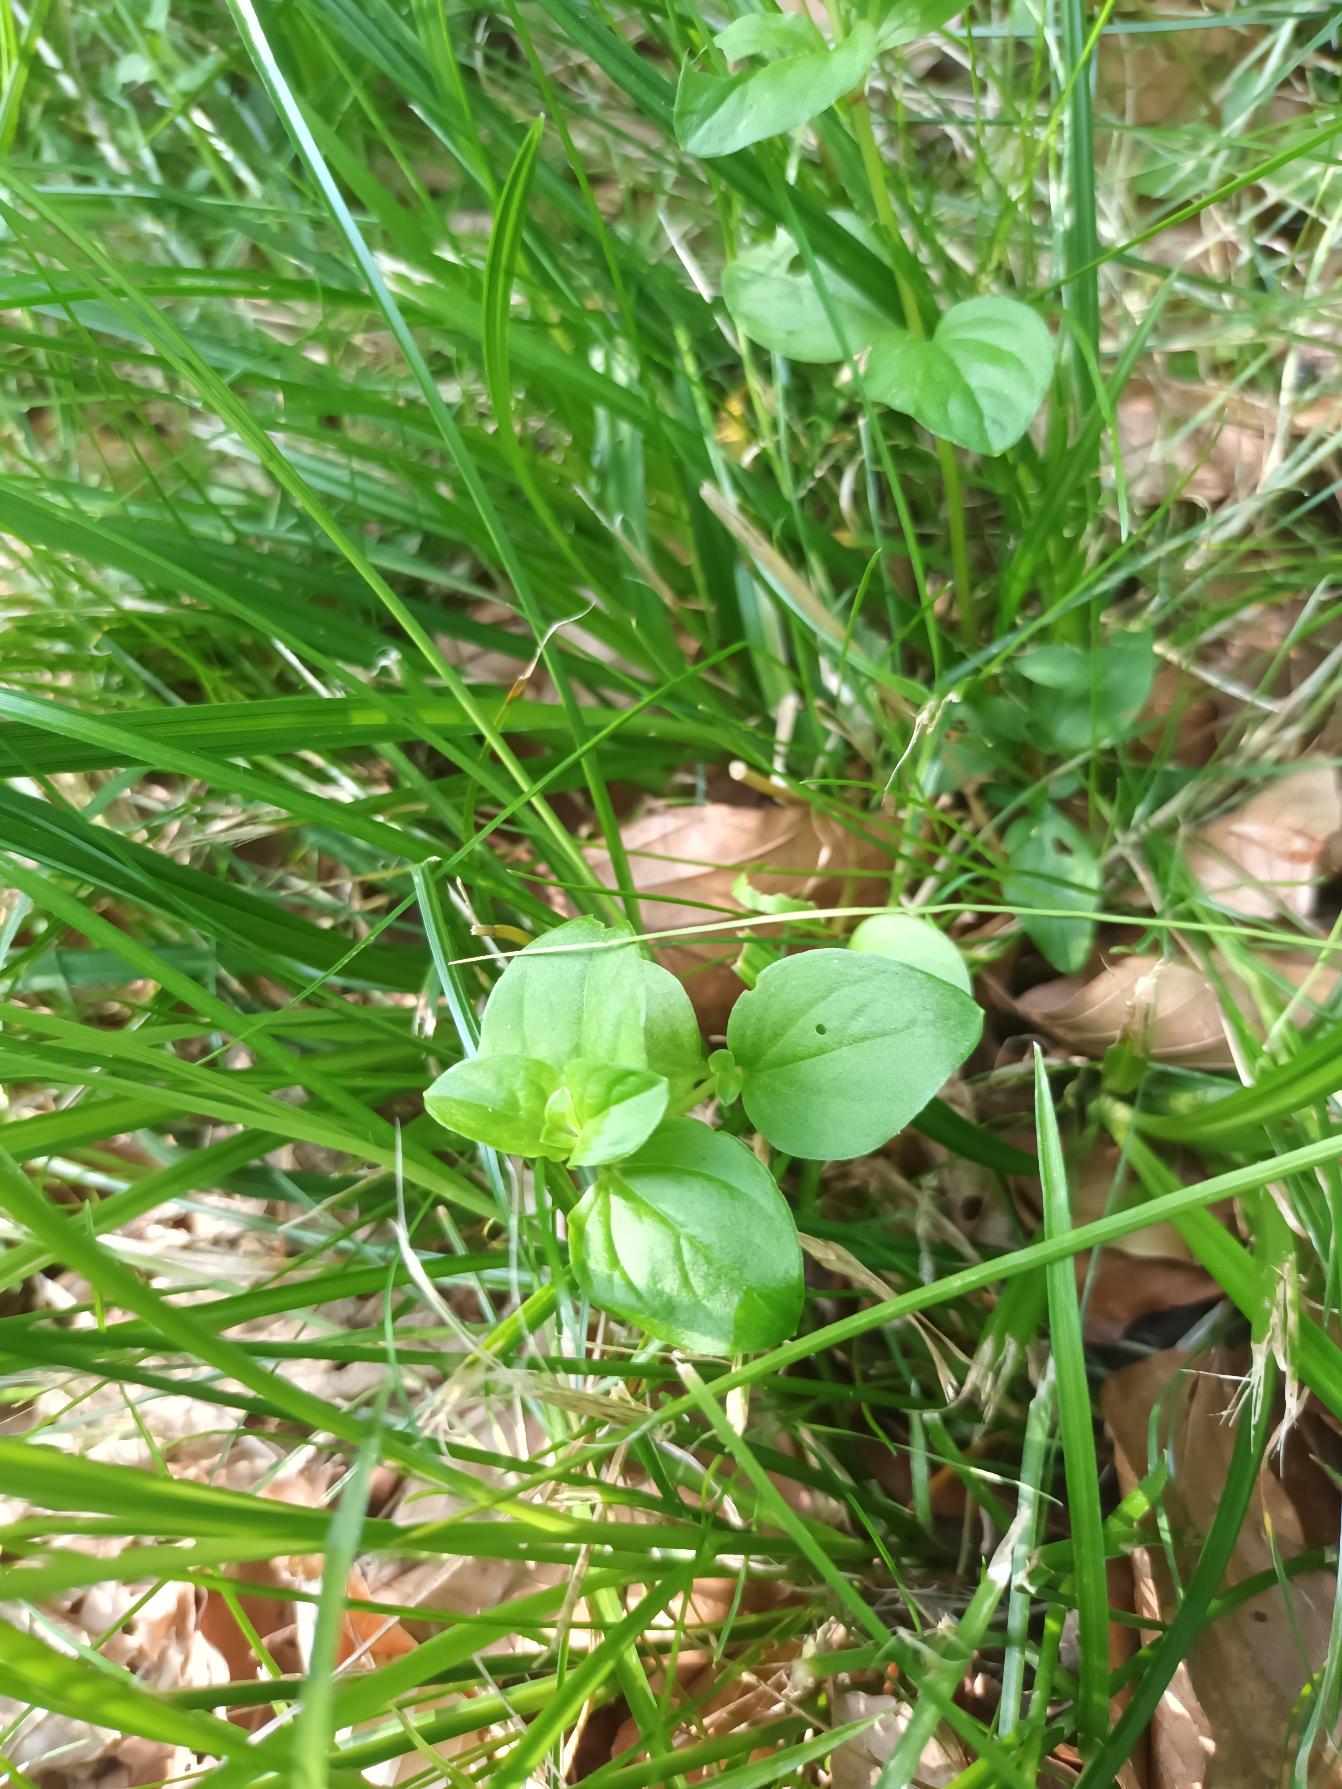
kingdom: Plantae
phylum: Tracheophyta
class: Magnoliopsida
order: Ericales
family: Primulaceae
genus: Lysimachia
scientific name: Lysimachia nemorum
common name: Lund-fredløs
